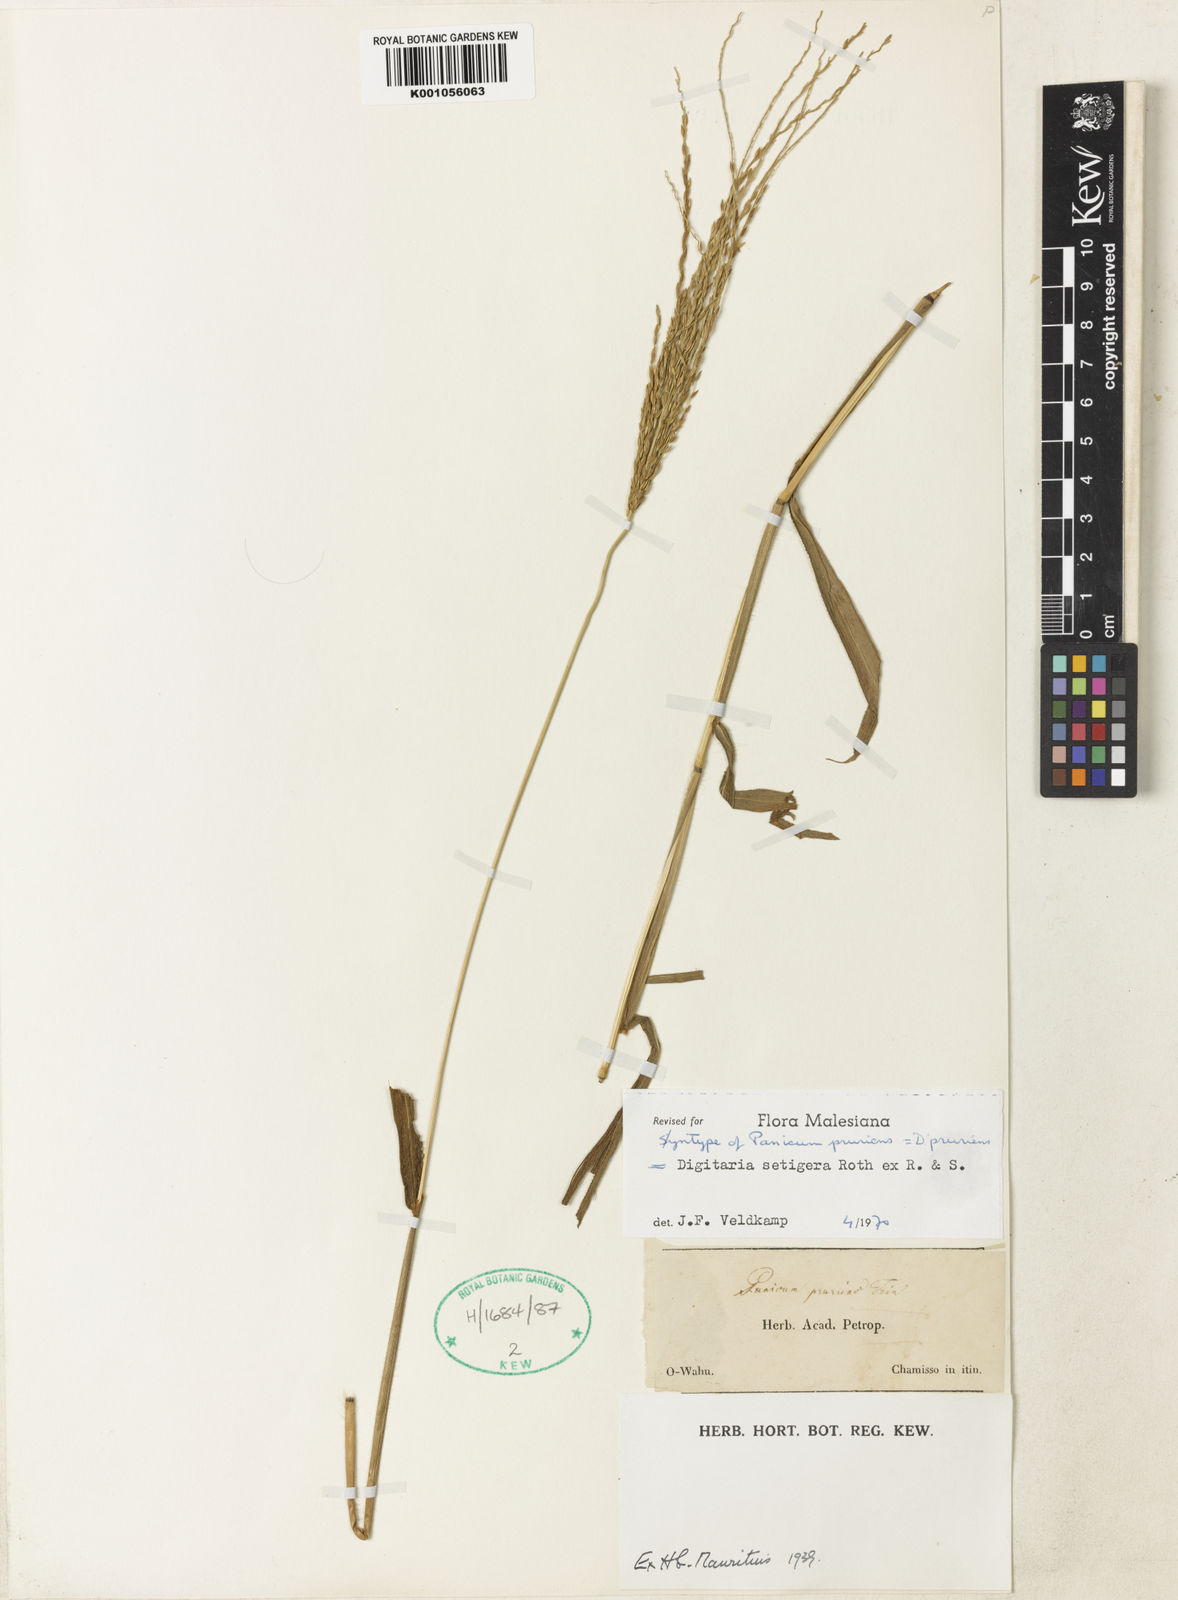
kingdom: Plantae
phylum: Tracheophyta
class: Liliopsida
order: Poales
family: Poaceae
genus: Digitaria
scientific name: Digitaria setigera
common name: East indian crabgrass
